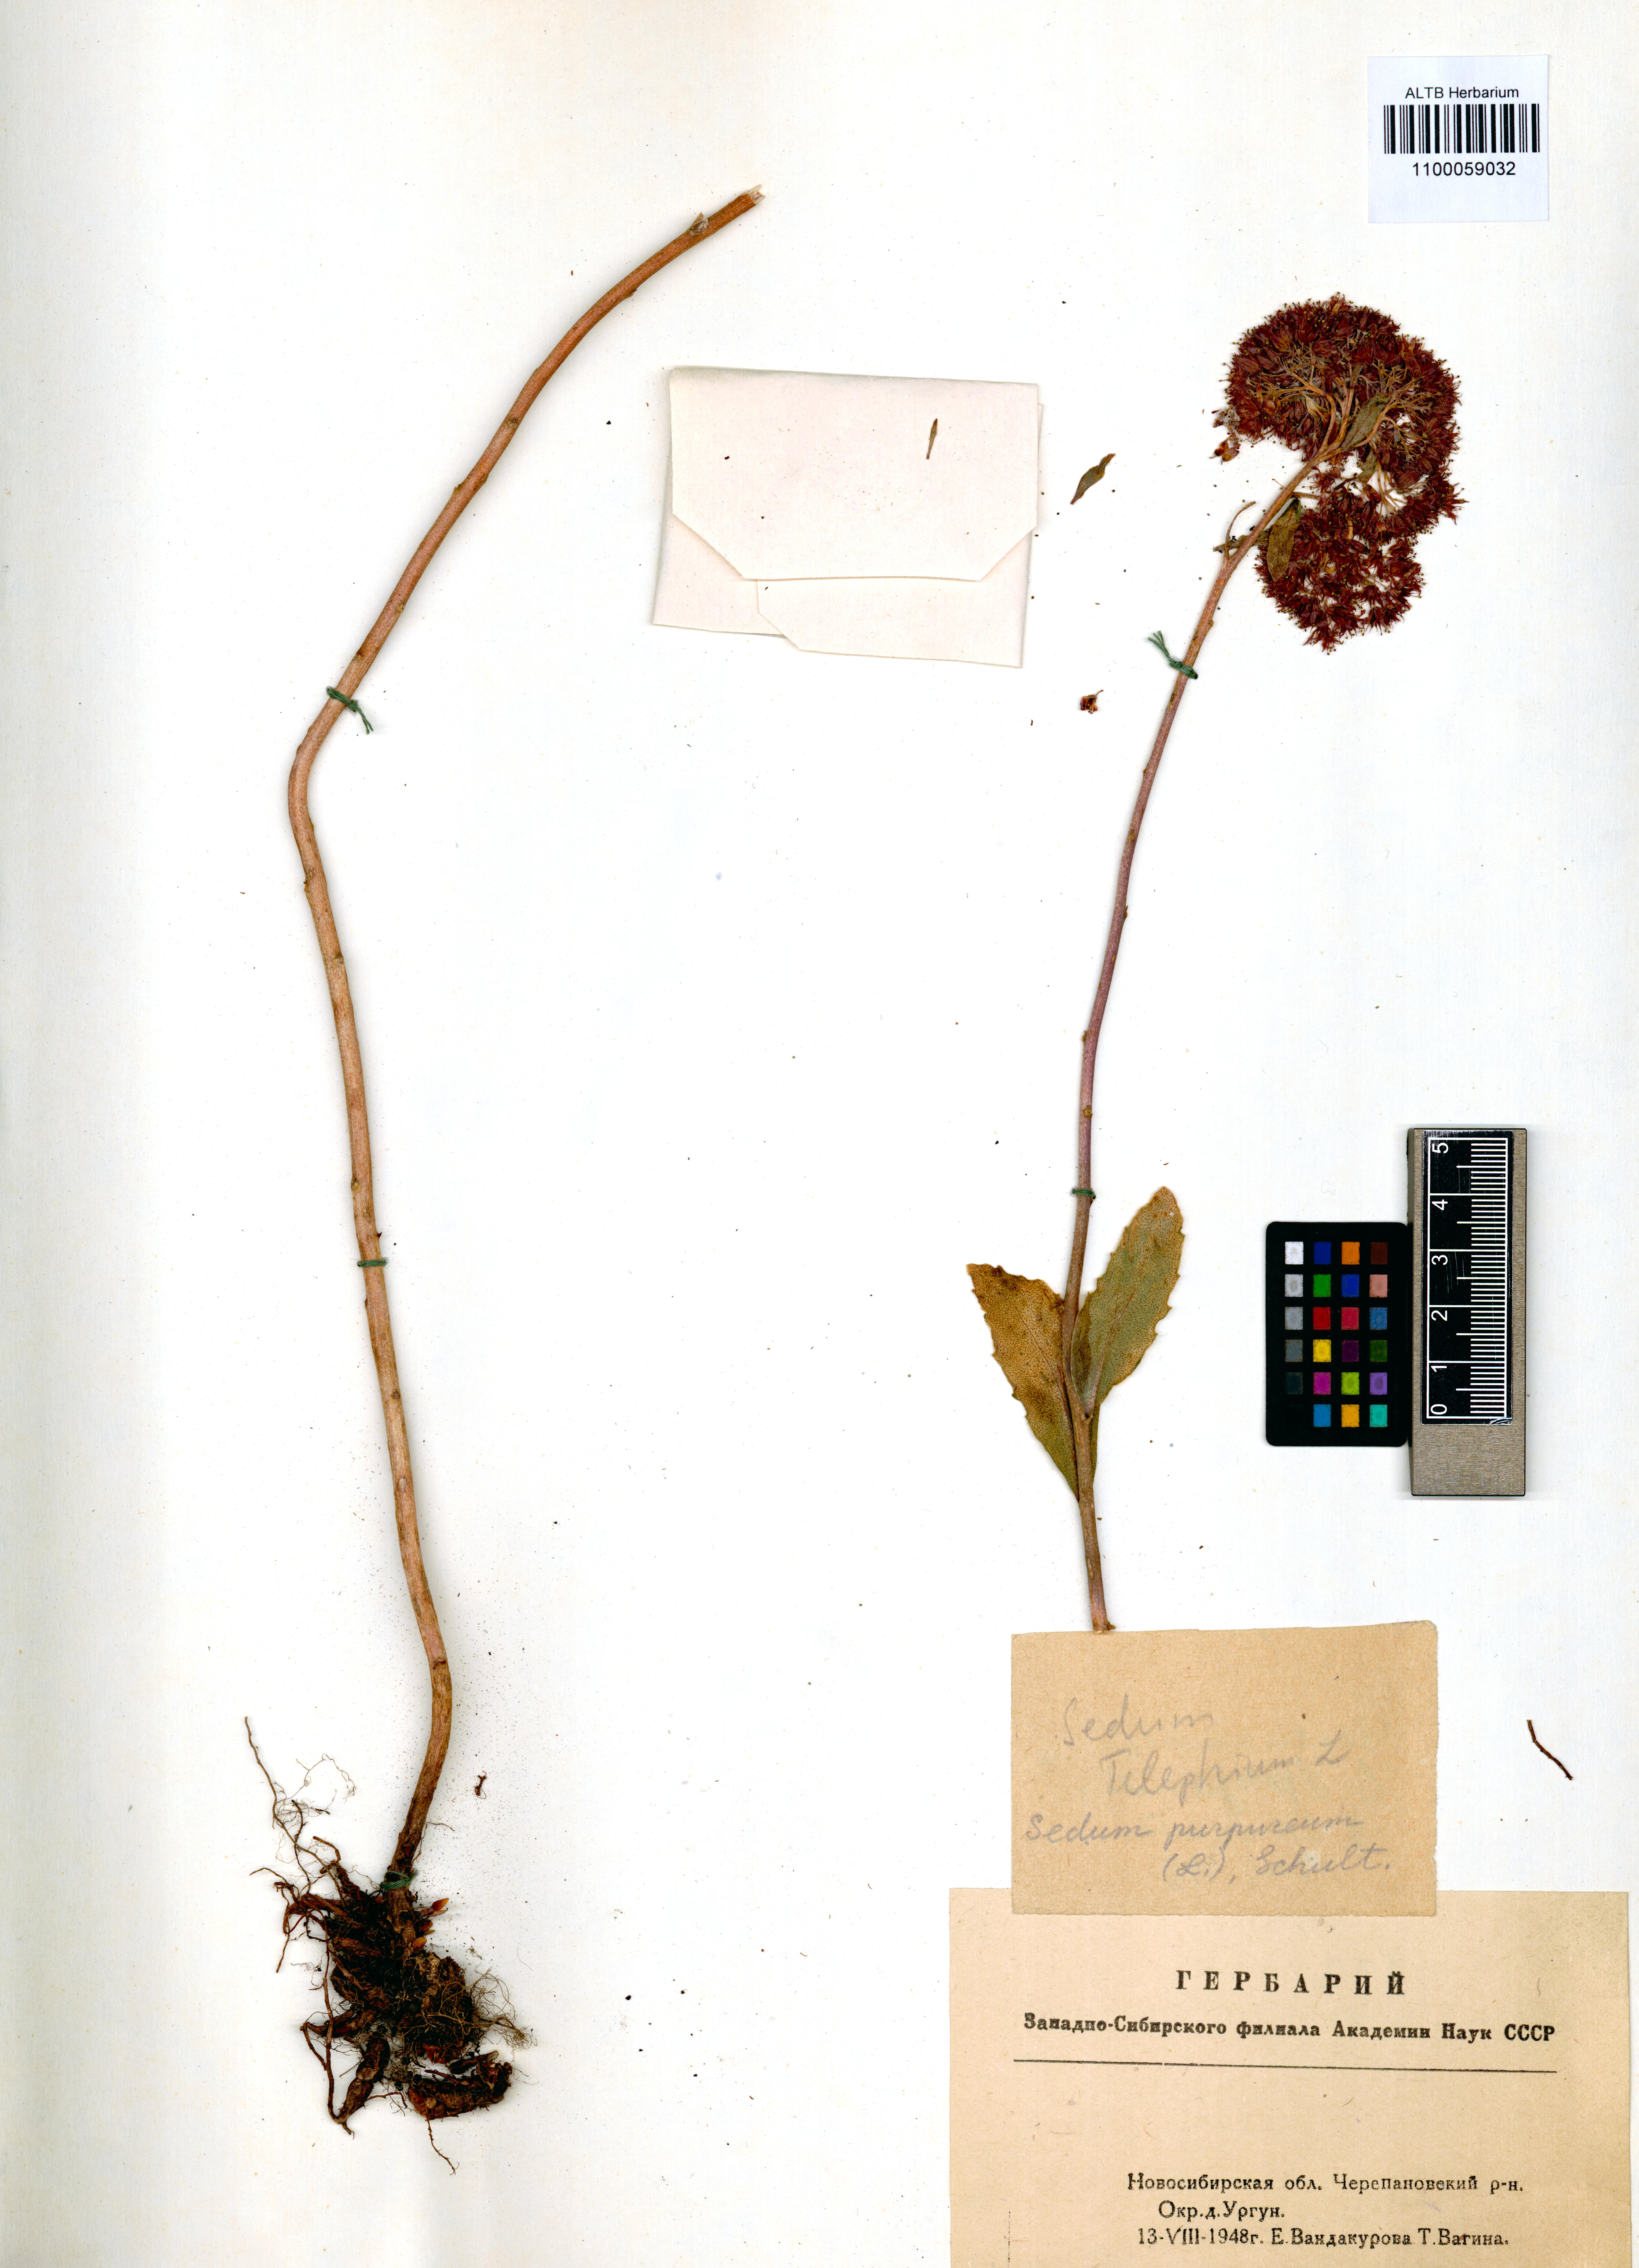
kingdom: Plantae
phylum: Tracheophyta
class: Magnoliopsida
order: Saxifragales
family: Crassulaceae
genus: Hylotelephium
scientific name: Hylotelephium telephium
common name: Live-forever
